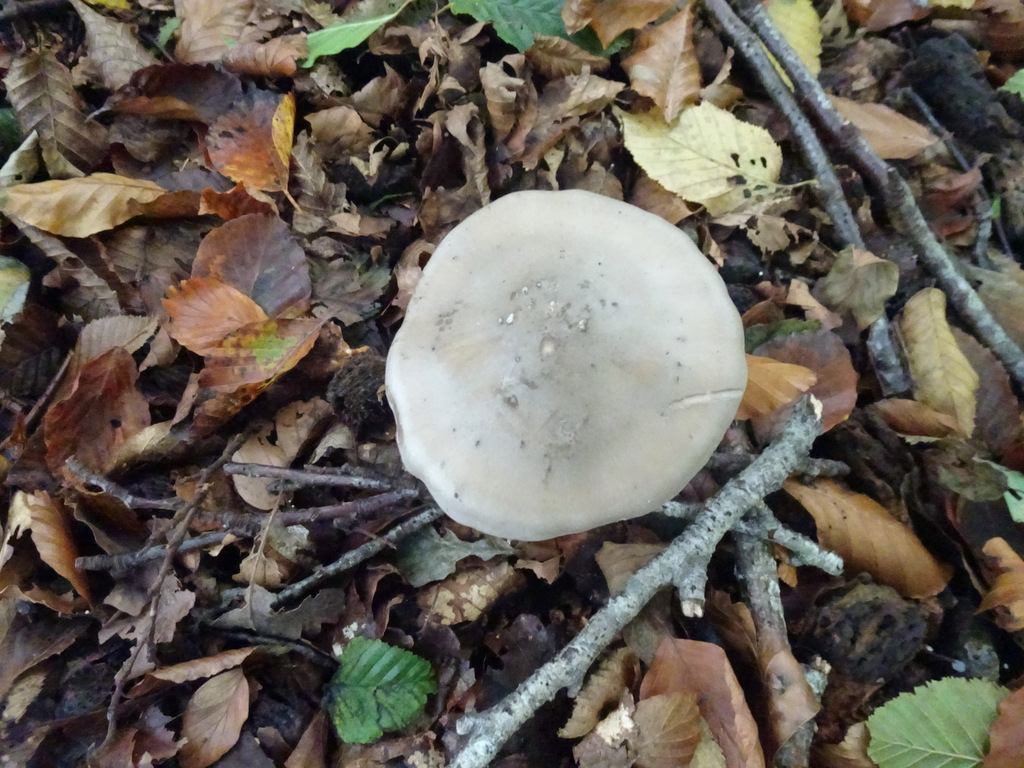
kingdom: Fungi
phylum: Basidiomycota
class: Agaricomycetes
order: Agaricales
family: Tricholomataceae
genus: Clitocybe
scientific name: Clitocybe nebularis
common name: tåge-tragthat
